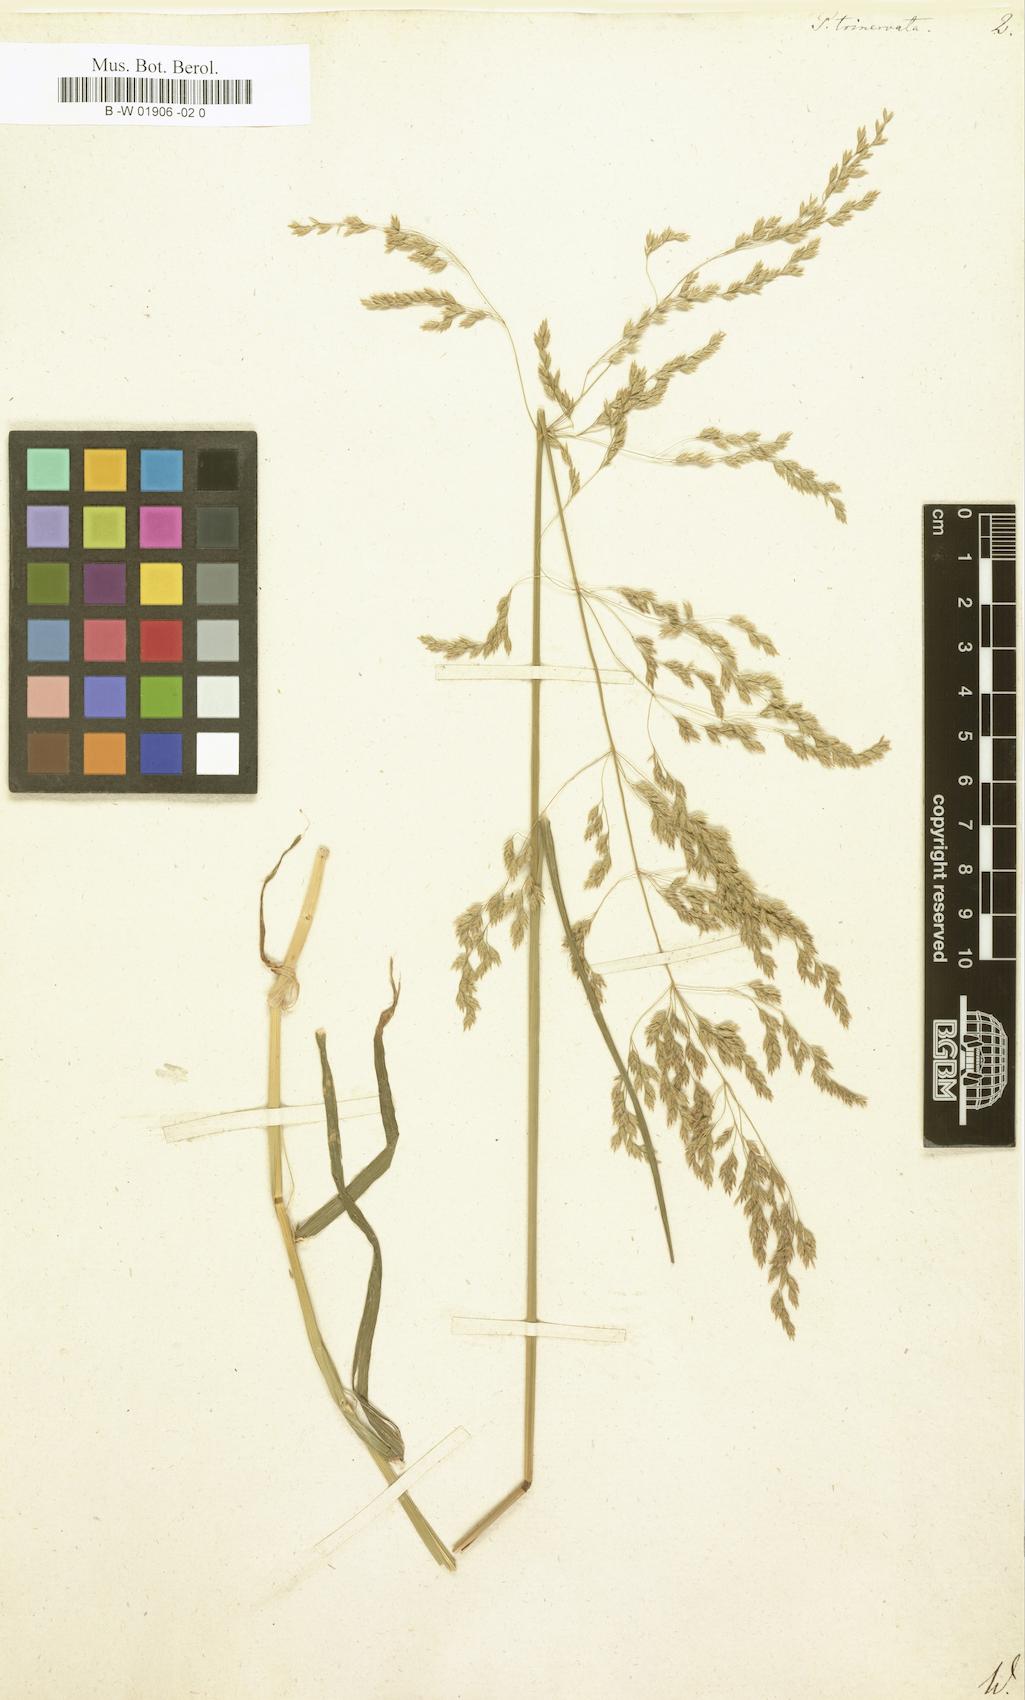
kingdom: Plantae
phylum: Tracheophyta
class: Liliopsida
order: Poales
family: Poaceae
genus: Festuca
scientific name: Festuca altissima
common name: Wood fescue
